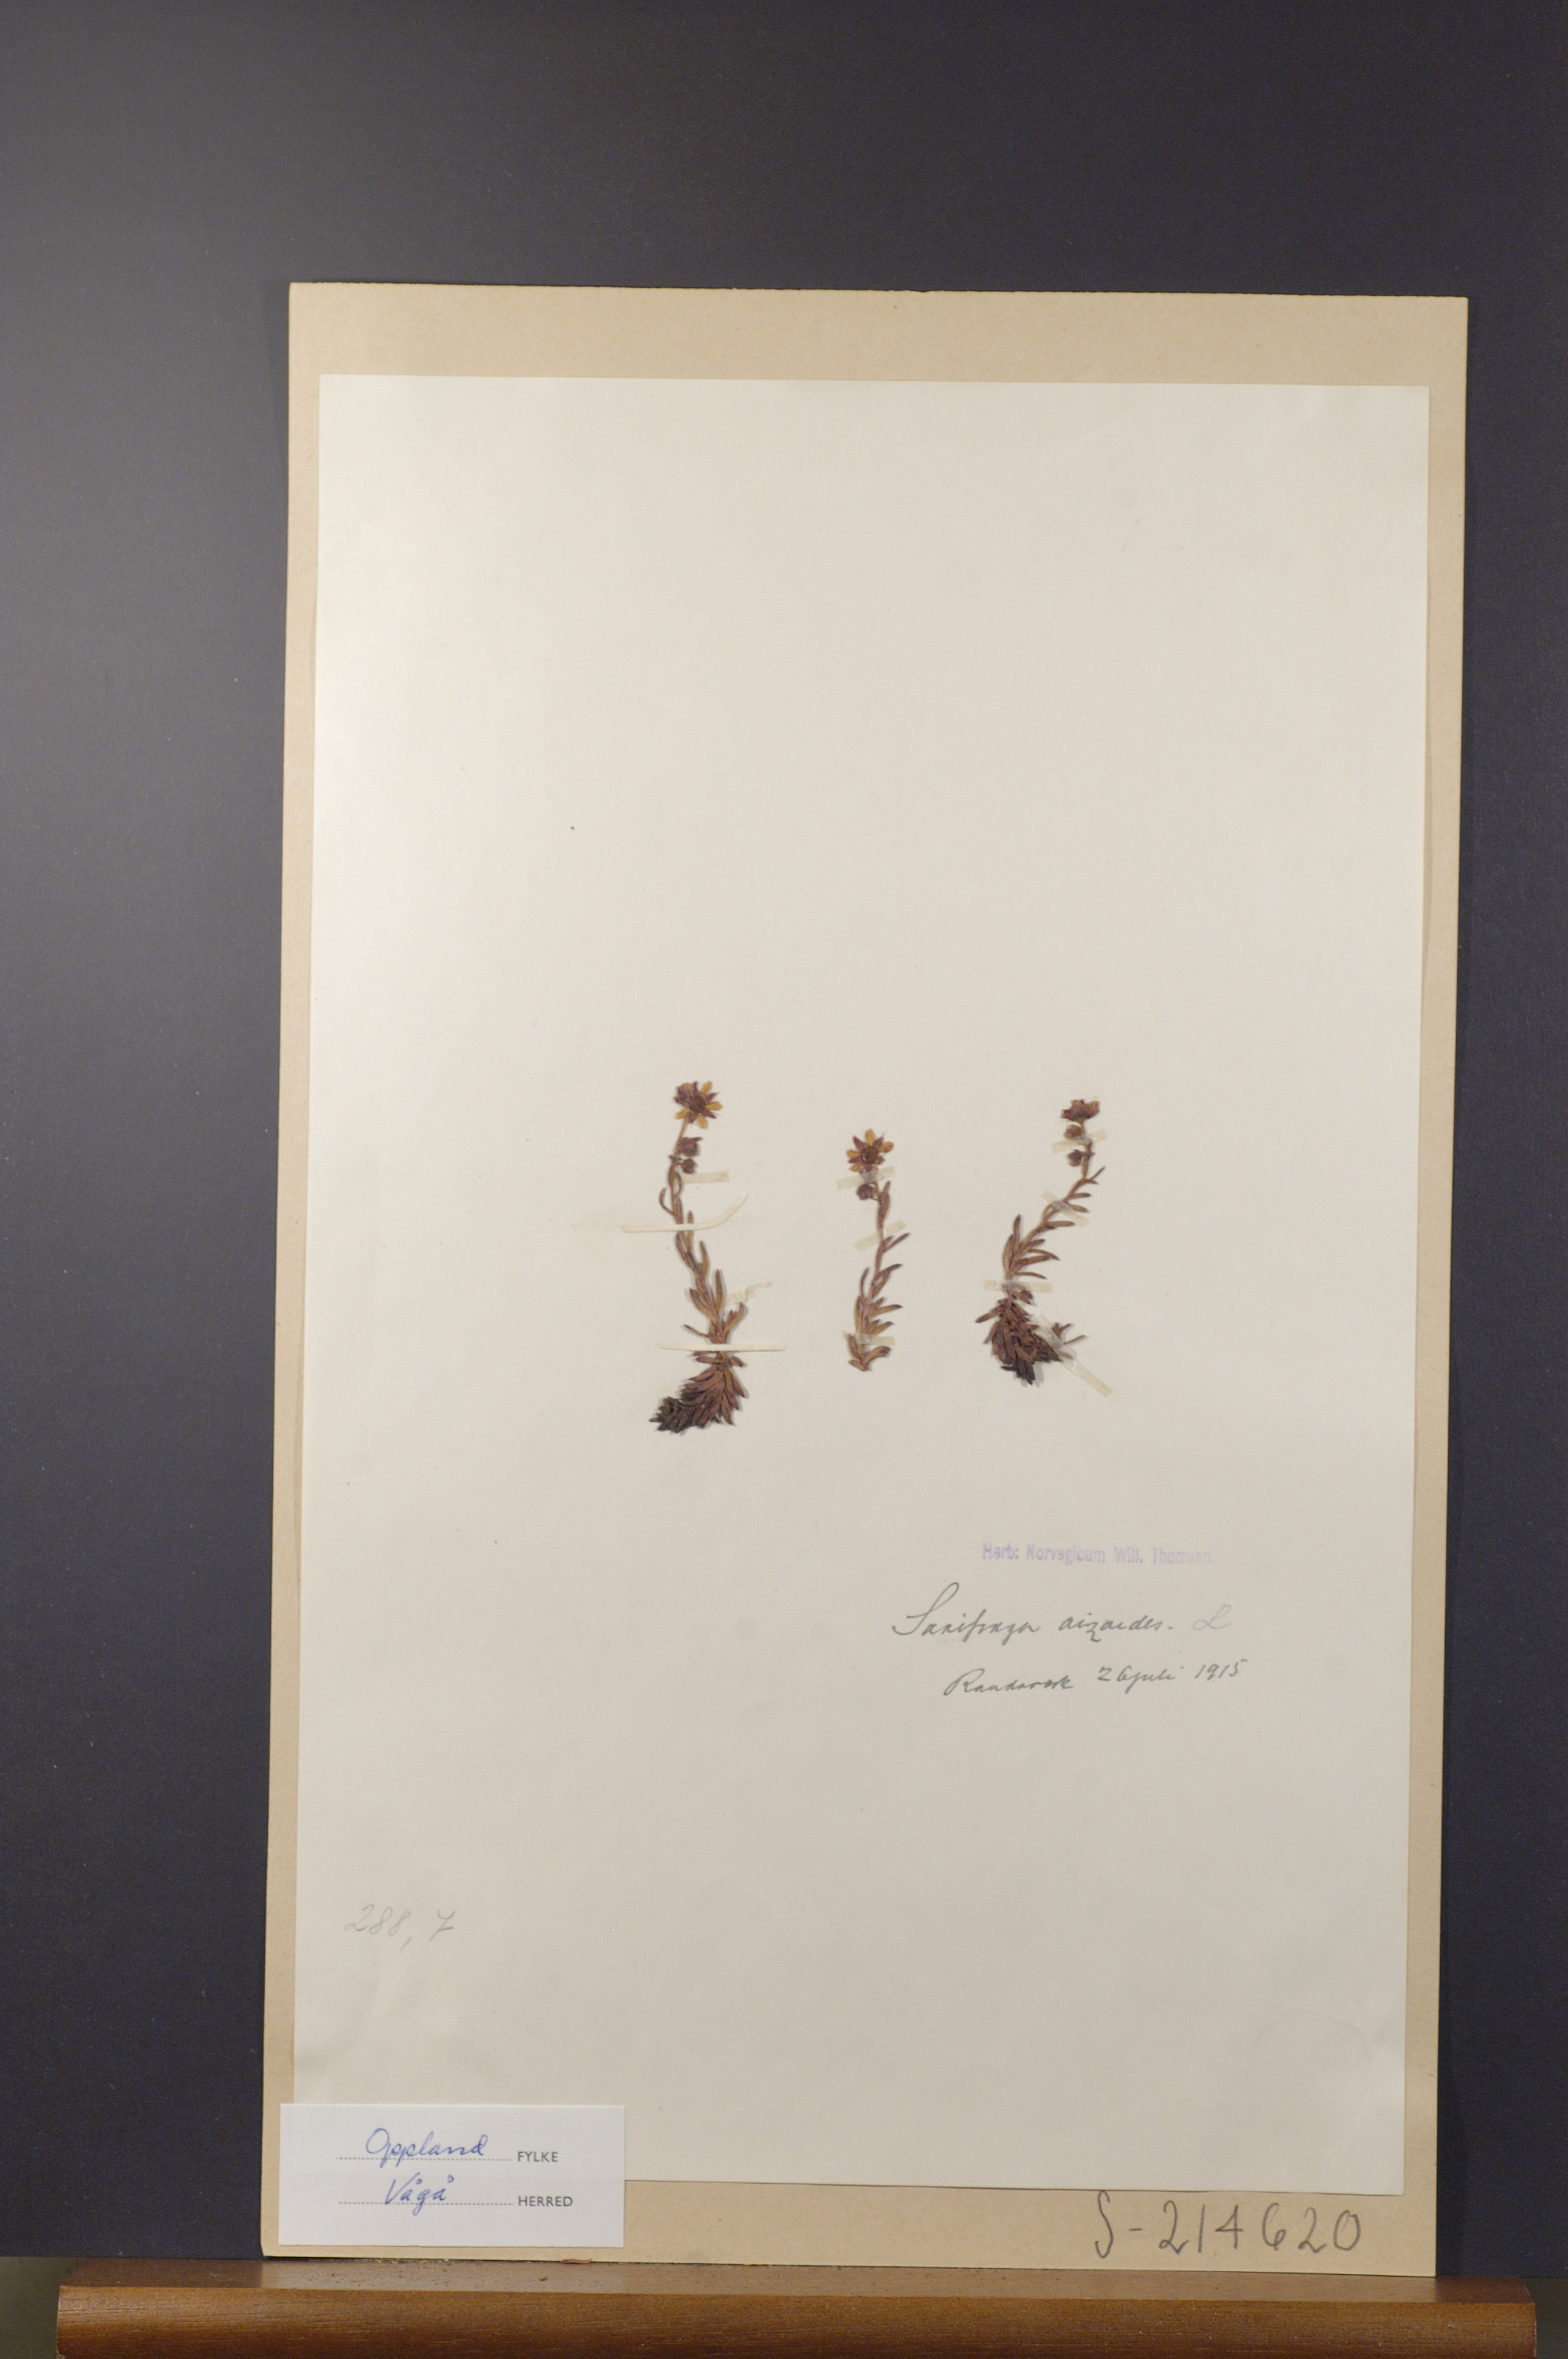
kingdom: Plantae
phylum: Tracheophyta
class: Magnoliopsida
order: Saxifragales
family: Saxifragaceae
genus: Saxifraga
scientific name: Saxifraga aizoides
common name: Yellow mountain saxifrage
